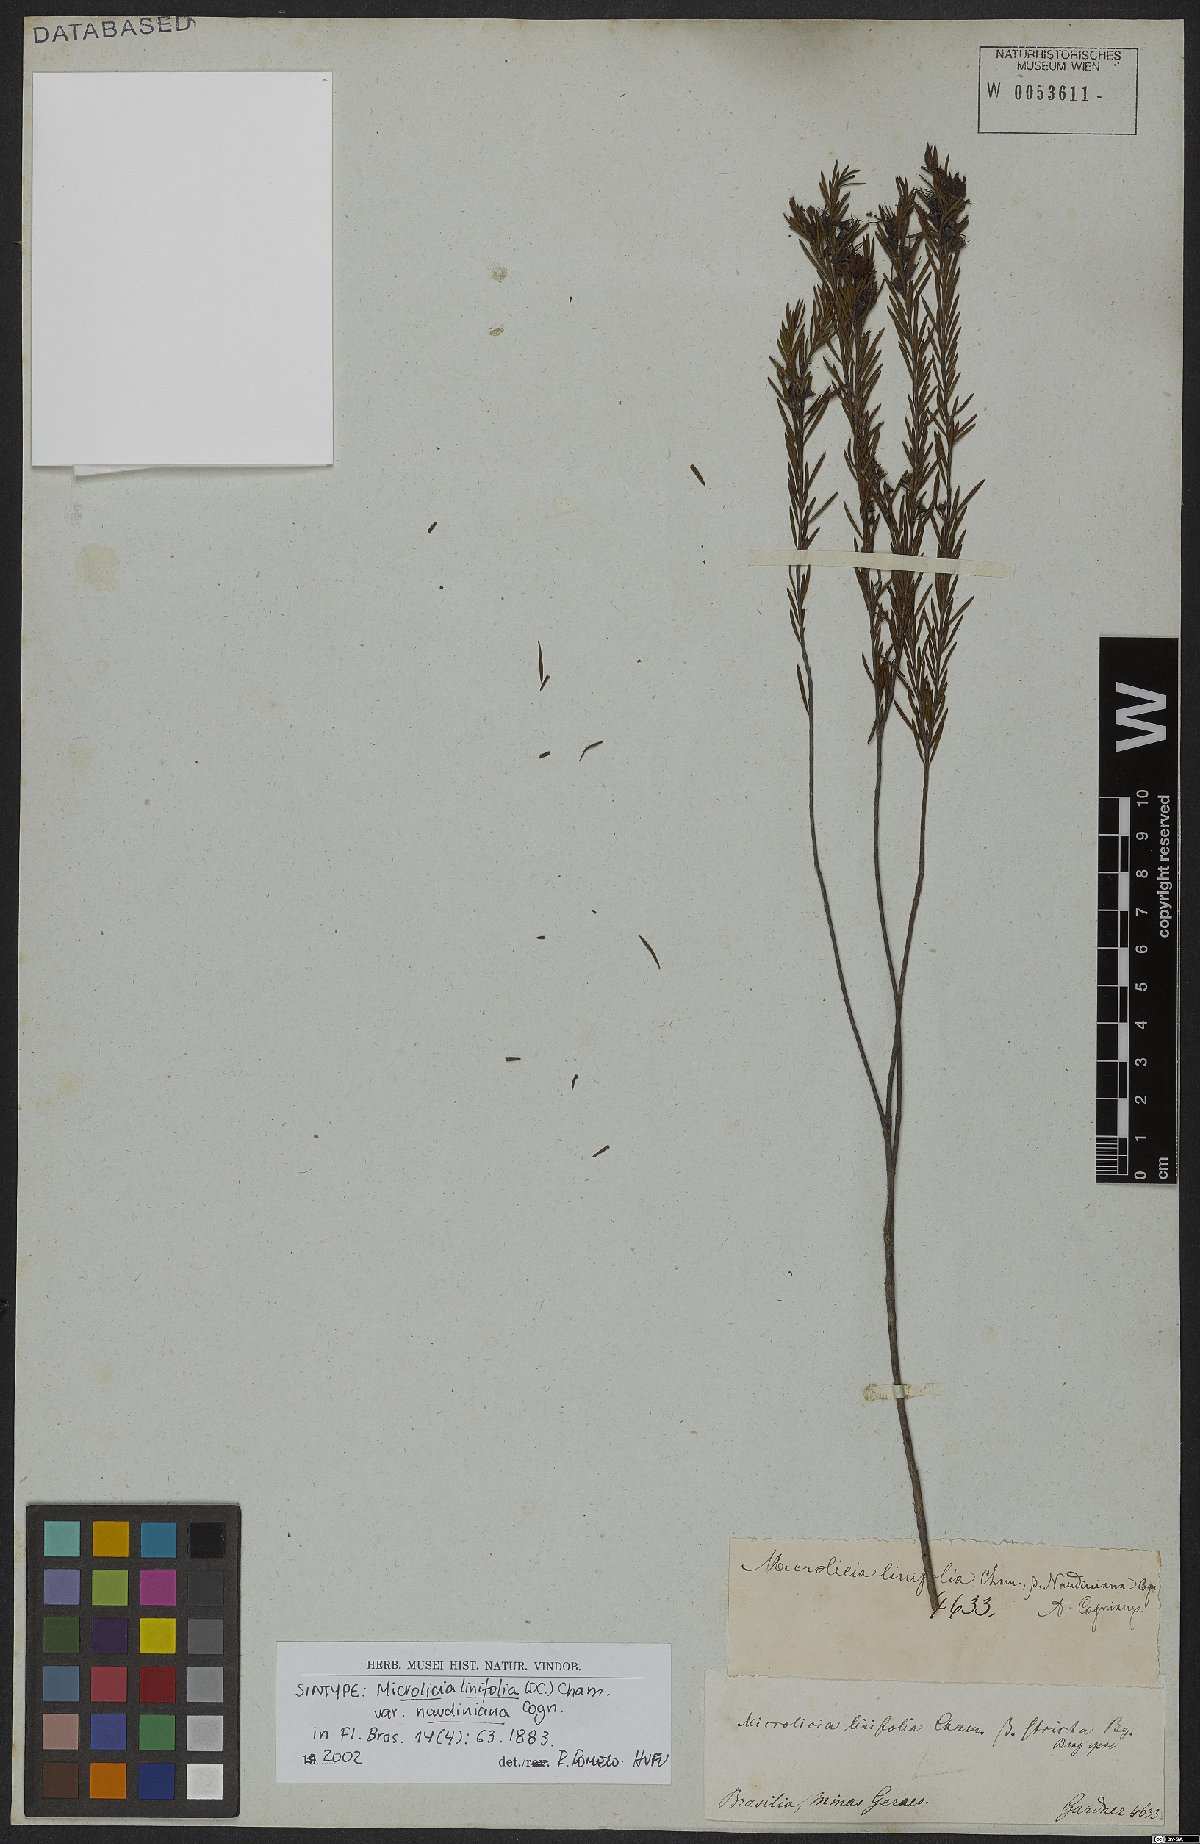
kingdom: Plantae
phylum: Tracheophyta
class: Magnoliopsida
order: Myrtales
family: Melastomataceae
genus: Microlicia
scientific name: Microlicia acerosa
